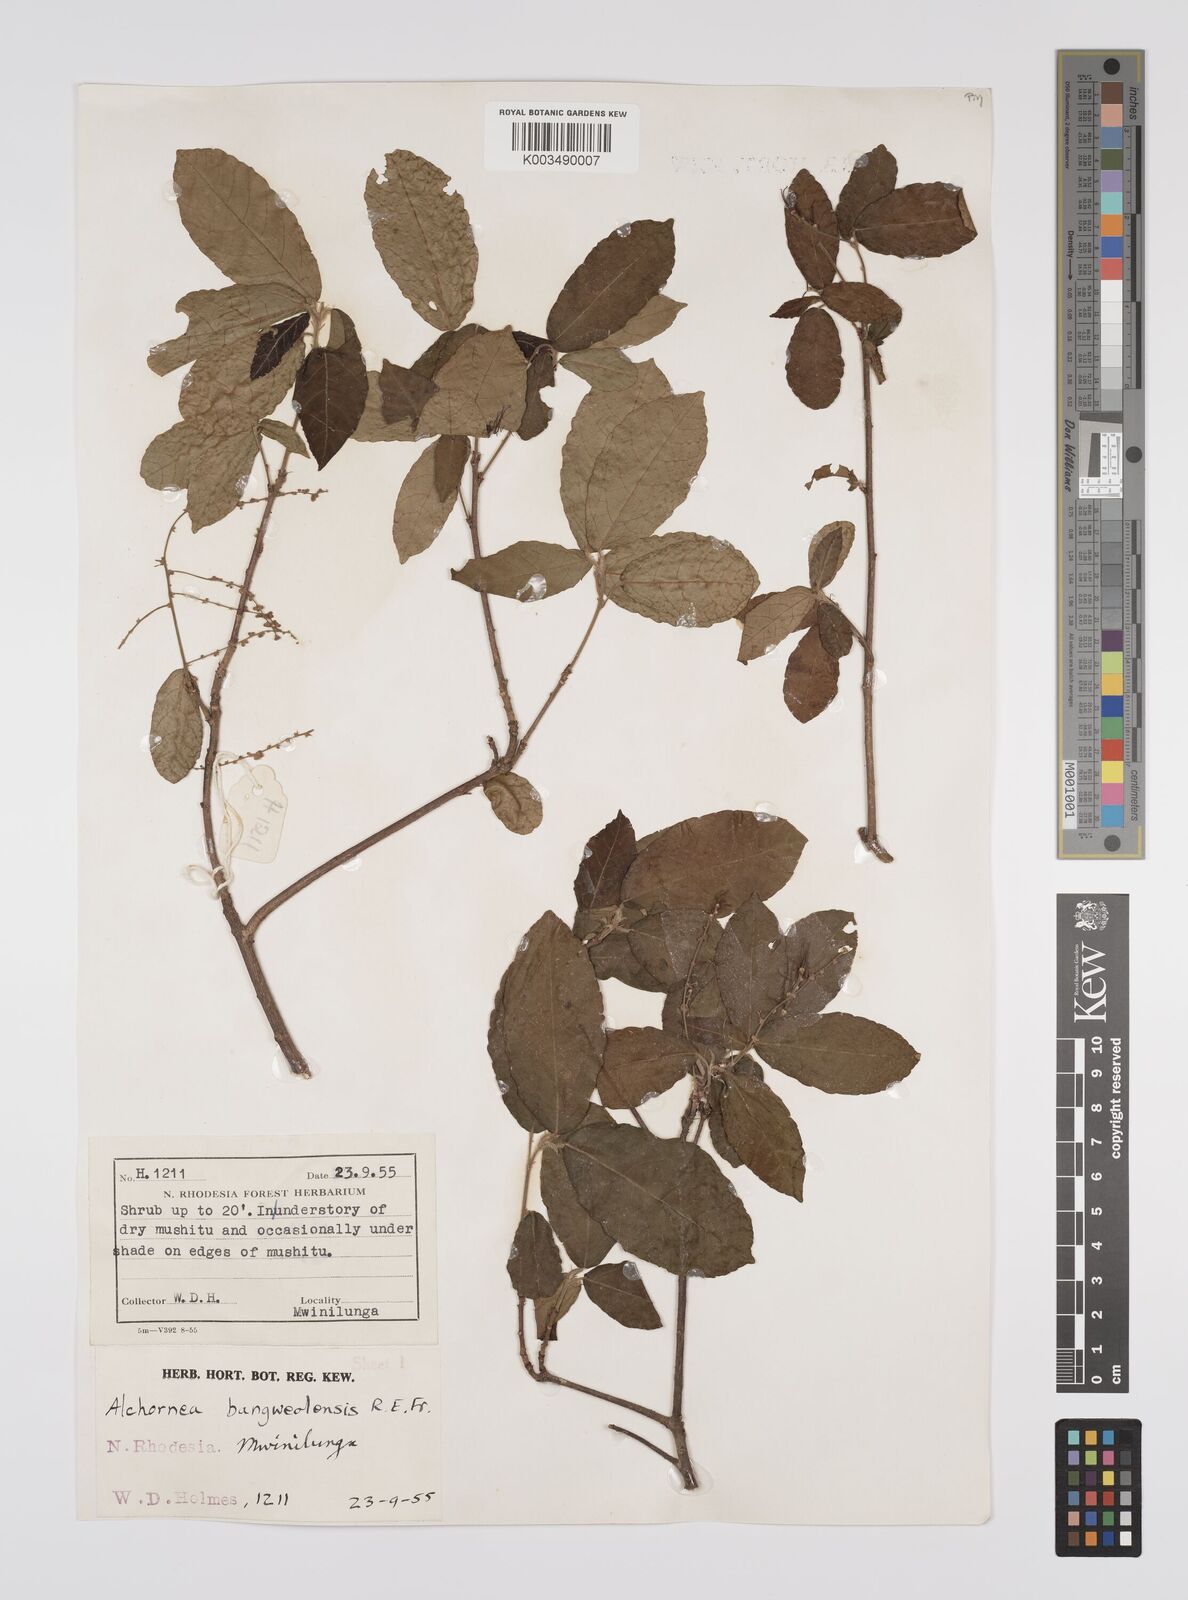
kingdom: Plantae
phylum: Tracheophyta
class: Magnoliopsida
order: Malpighiales
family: Euphorbiaceae
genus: Alchornea
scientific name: Alchornea yambuyaensis
